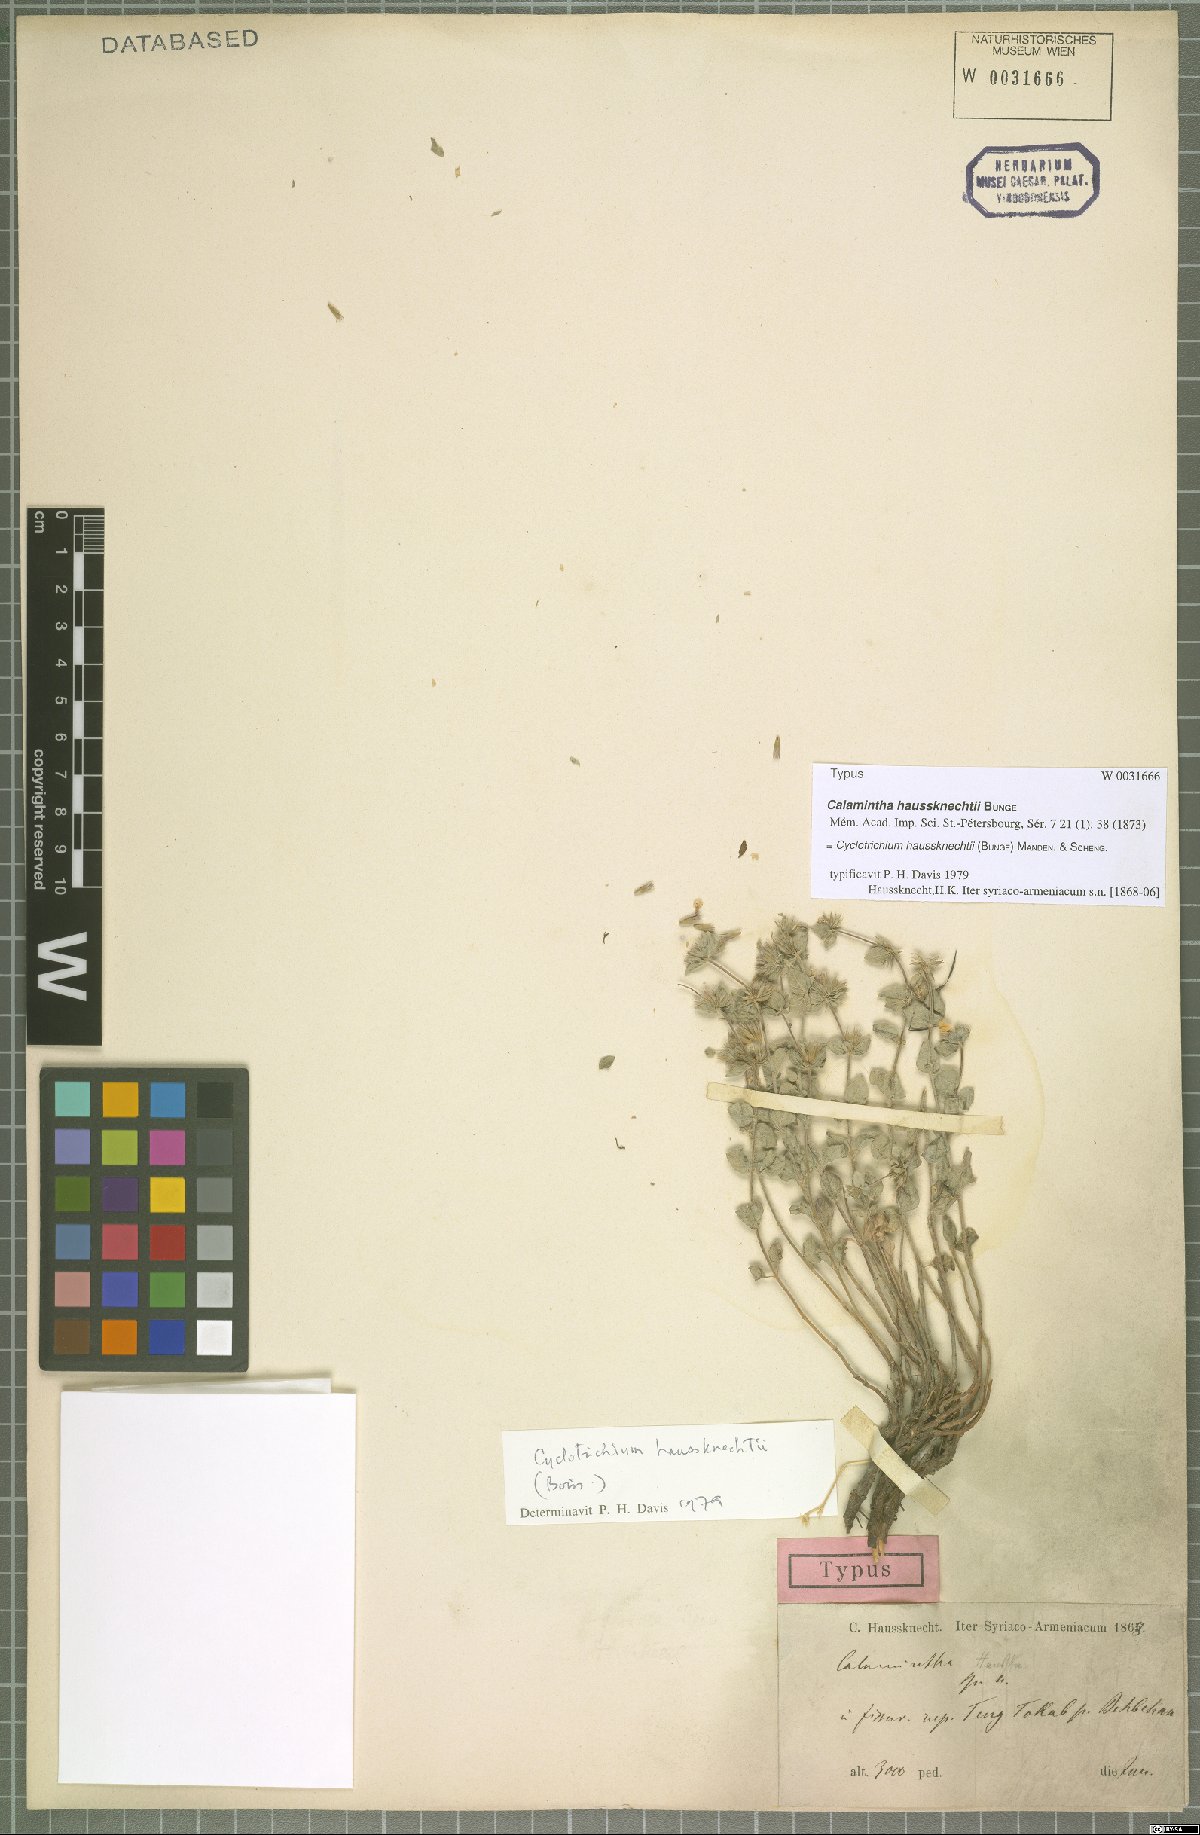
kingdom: Plantae
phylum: Tracheophyta
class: Magnoliopsida
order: Lamiales
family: Lamiaceae
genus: Cyclotrichium
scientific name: Cyclotrichium haussknechtii
